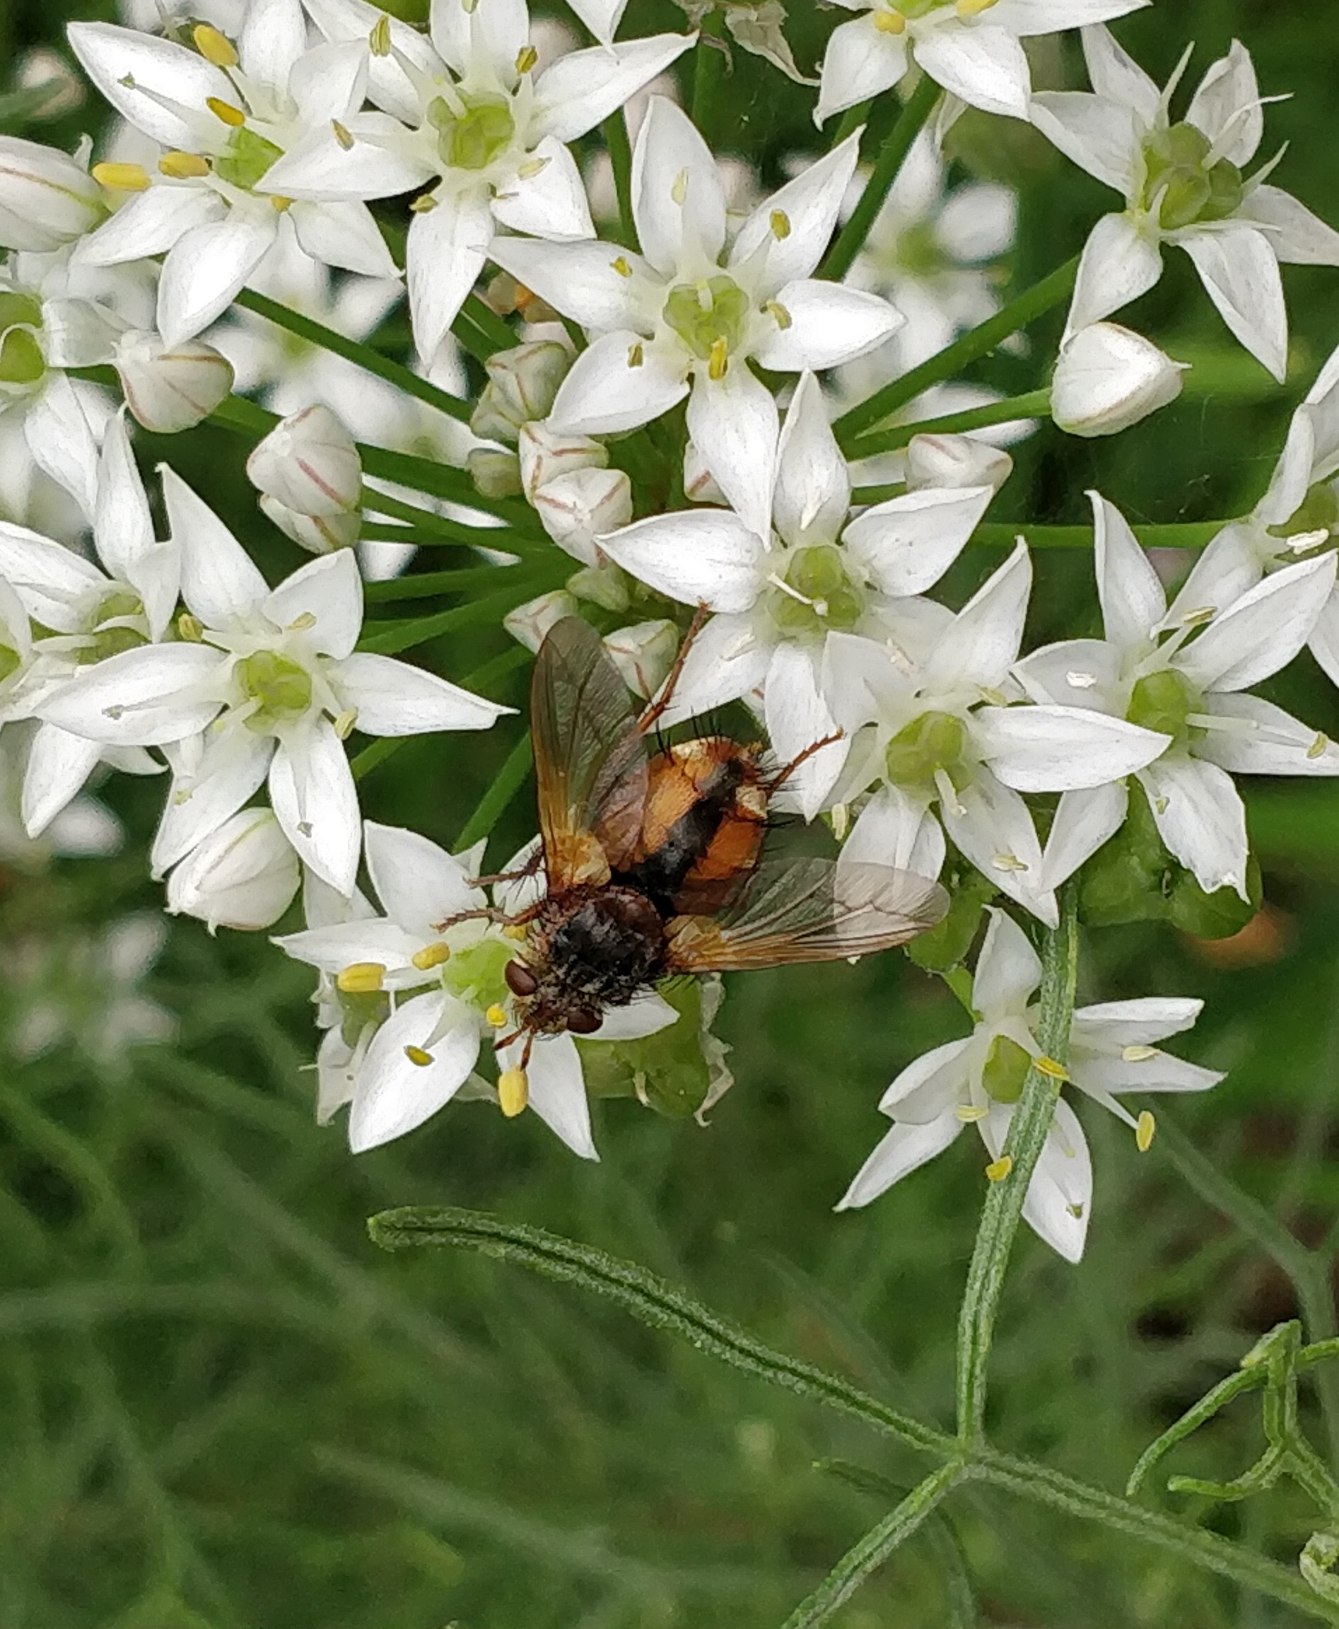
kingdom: Animalia
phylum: Arthropoda
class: Insecta
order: Diptera
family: Tachinidae
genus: Tachina
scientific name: Tachina fera
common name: Mellemfluen oskar
